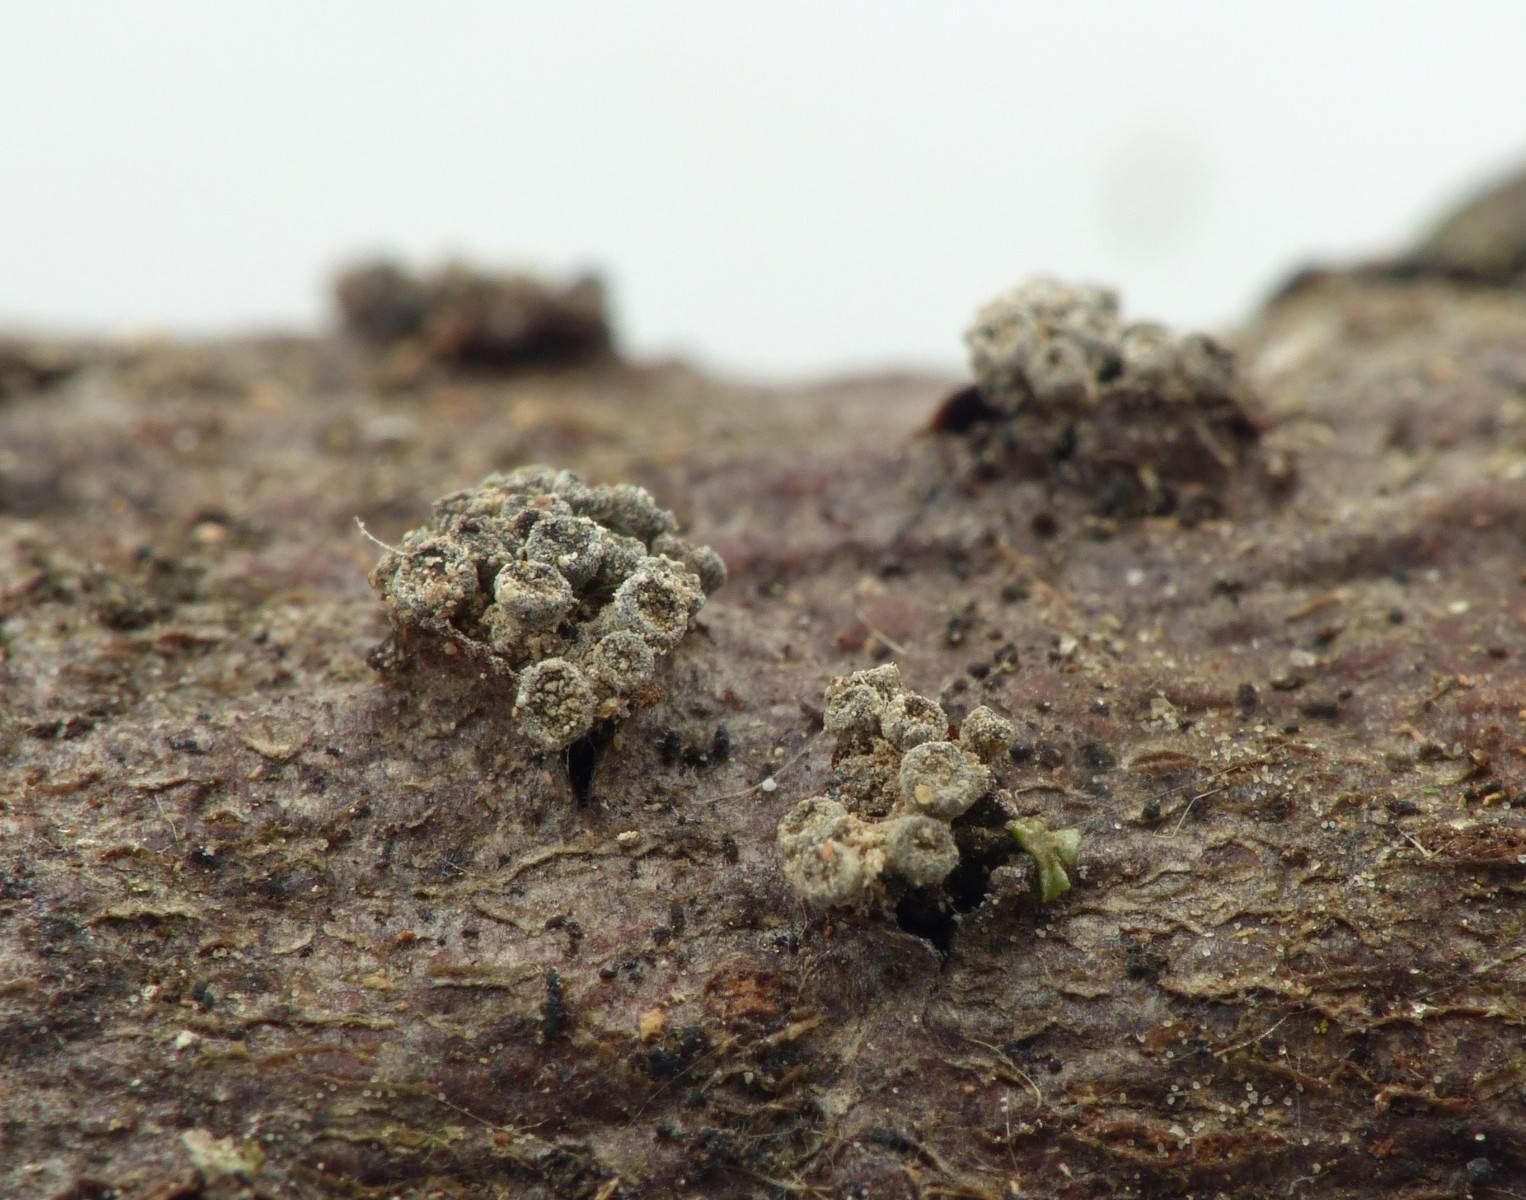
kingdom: Fungi
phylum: Ascomycota
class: Leotiomycetes
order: Leotiales
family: Tympanidaceae
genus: Tympanis
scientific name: Tympanis alnea
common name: almindelig knippeskive
